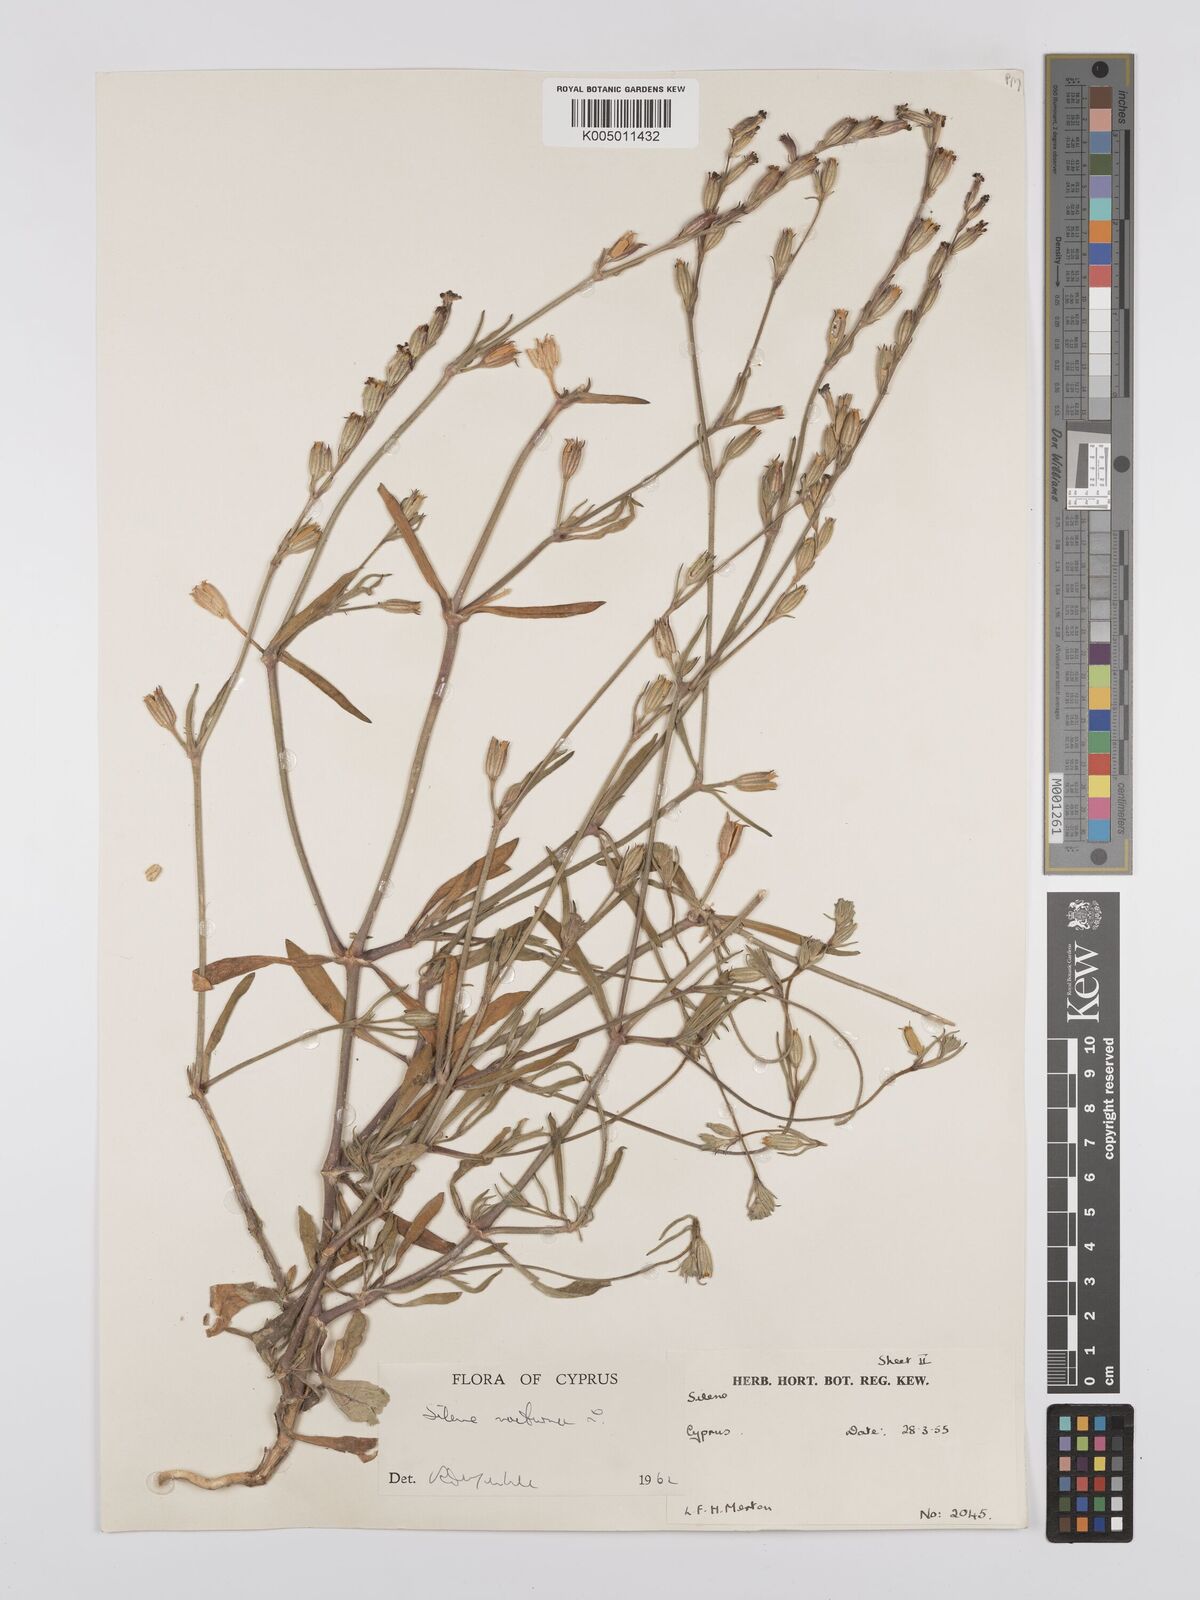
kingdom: Plantae
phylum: Tracheophyta
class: Magnoliopsida
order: Caryophyllales
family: Caryophyllaceae
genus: Silene
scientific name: Silene nocturna
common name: Mediterranean catchfly
